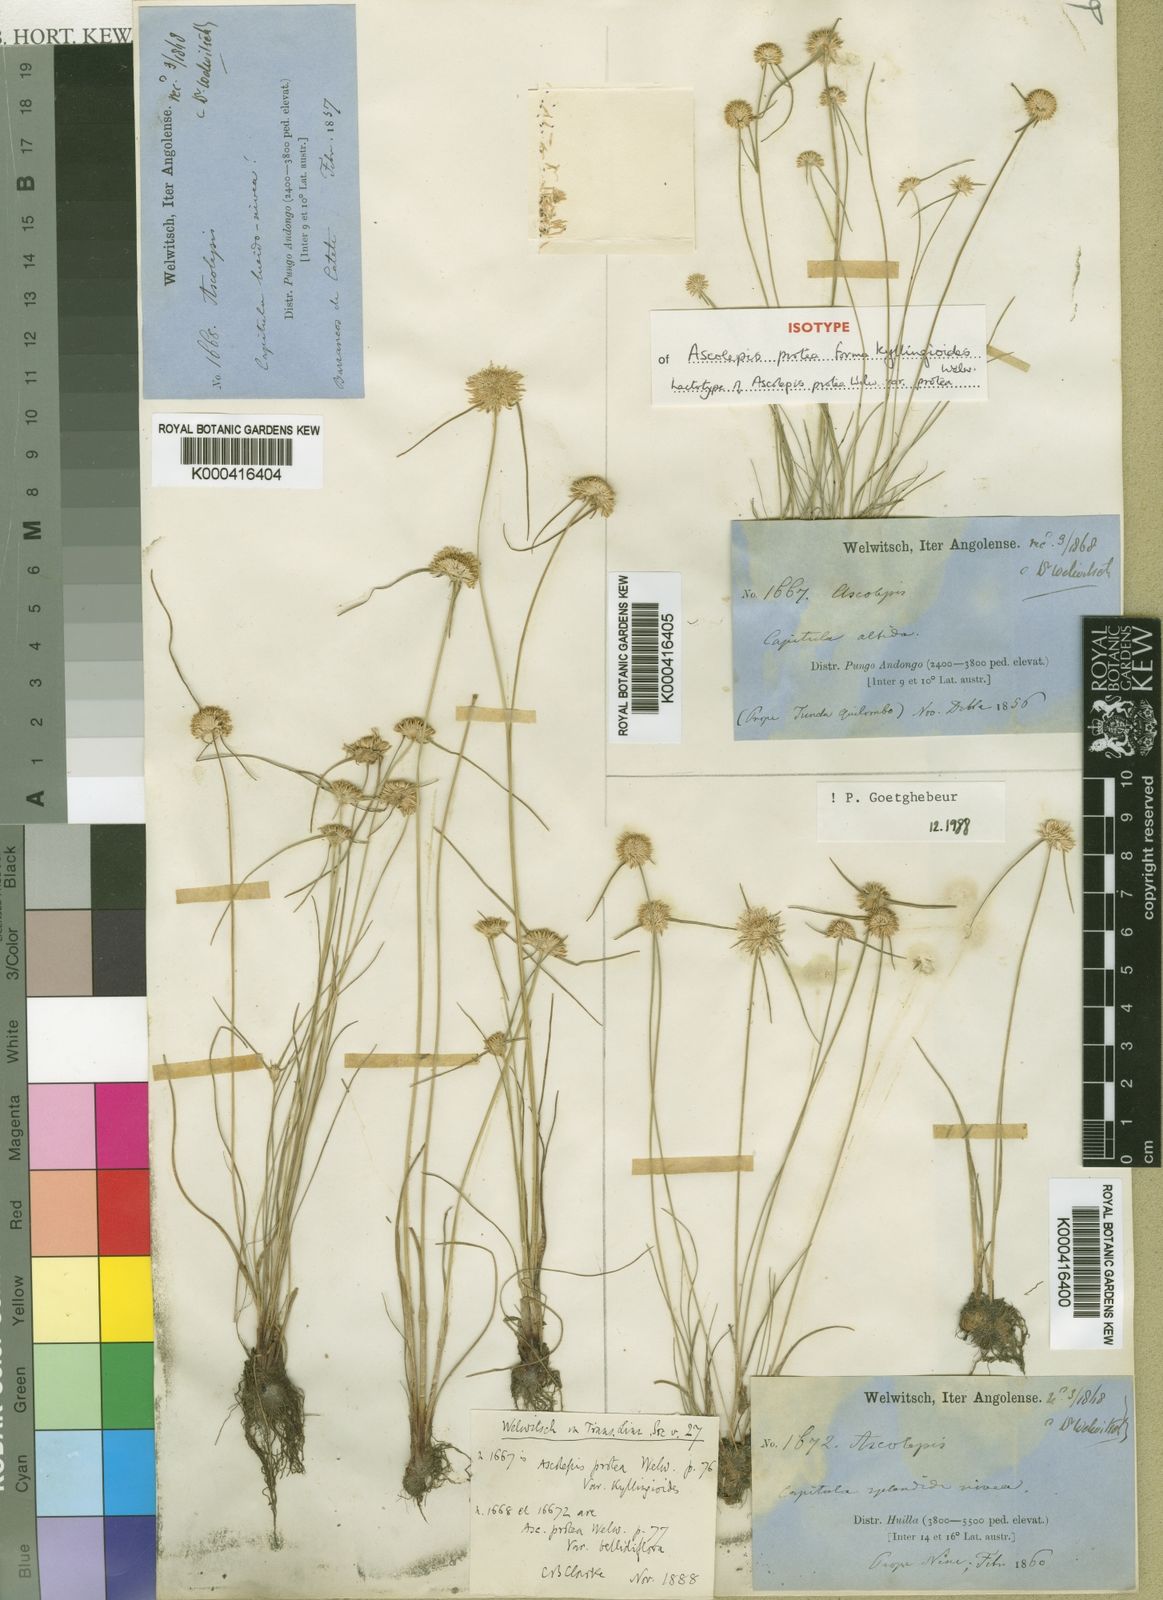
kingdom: Plantae
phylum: Tracheophyta
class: Liliopsida
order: Poales
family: Cyperaceae
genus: Cyperus
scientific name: Cyperus proteus
